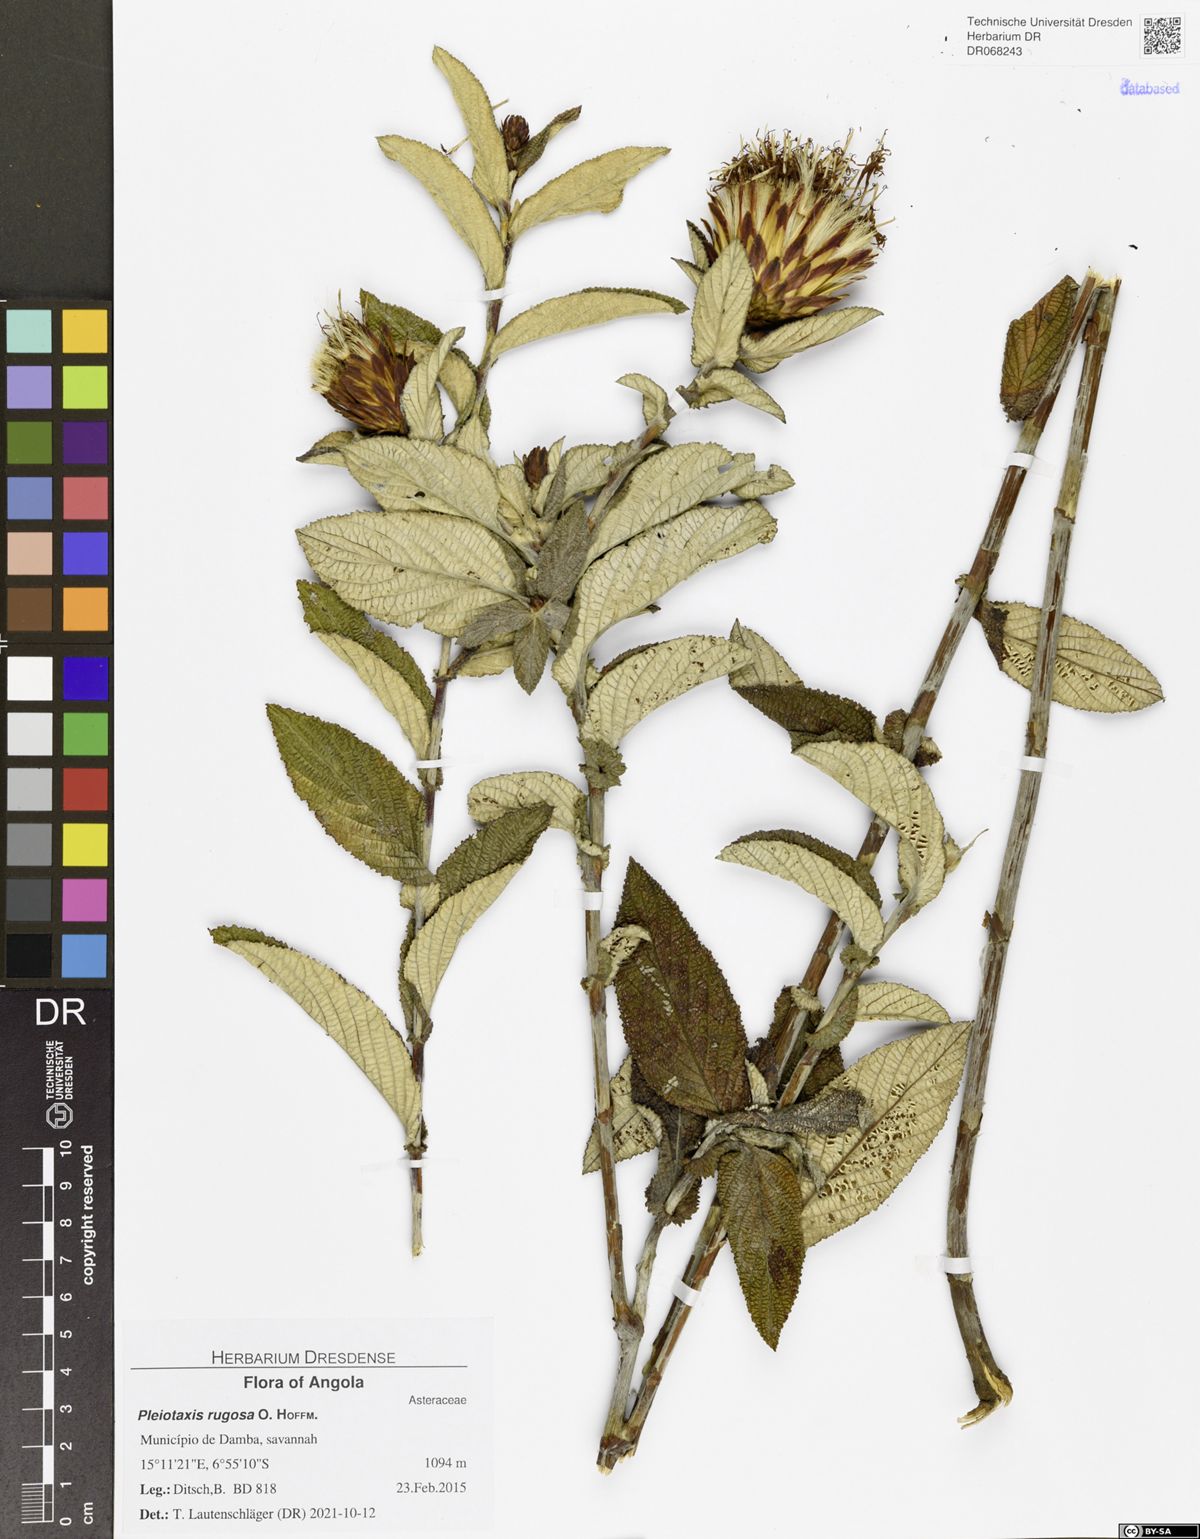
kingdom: Plantae
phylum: Tracheophyta
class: Magnoliopsida
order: Asterales
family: Asteraceae
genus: Pleiotaxis
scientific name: Pleiotaxis rugosa
